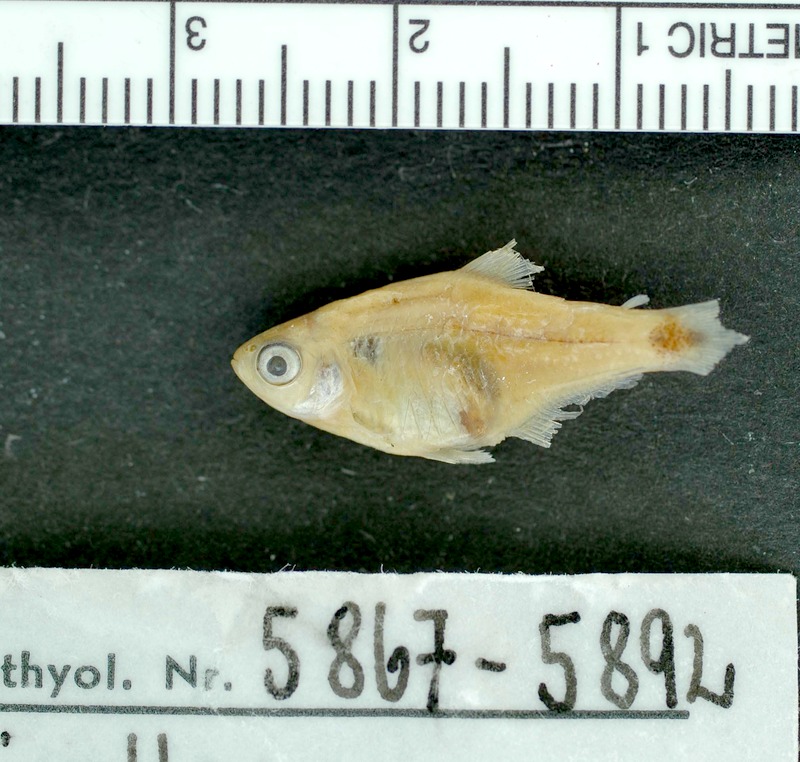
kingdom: Animalia
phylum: Chordata
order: Characiformes
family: Characidae
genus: Serrapinnus
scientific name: Serrapinnus kriegi
